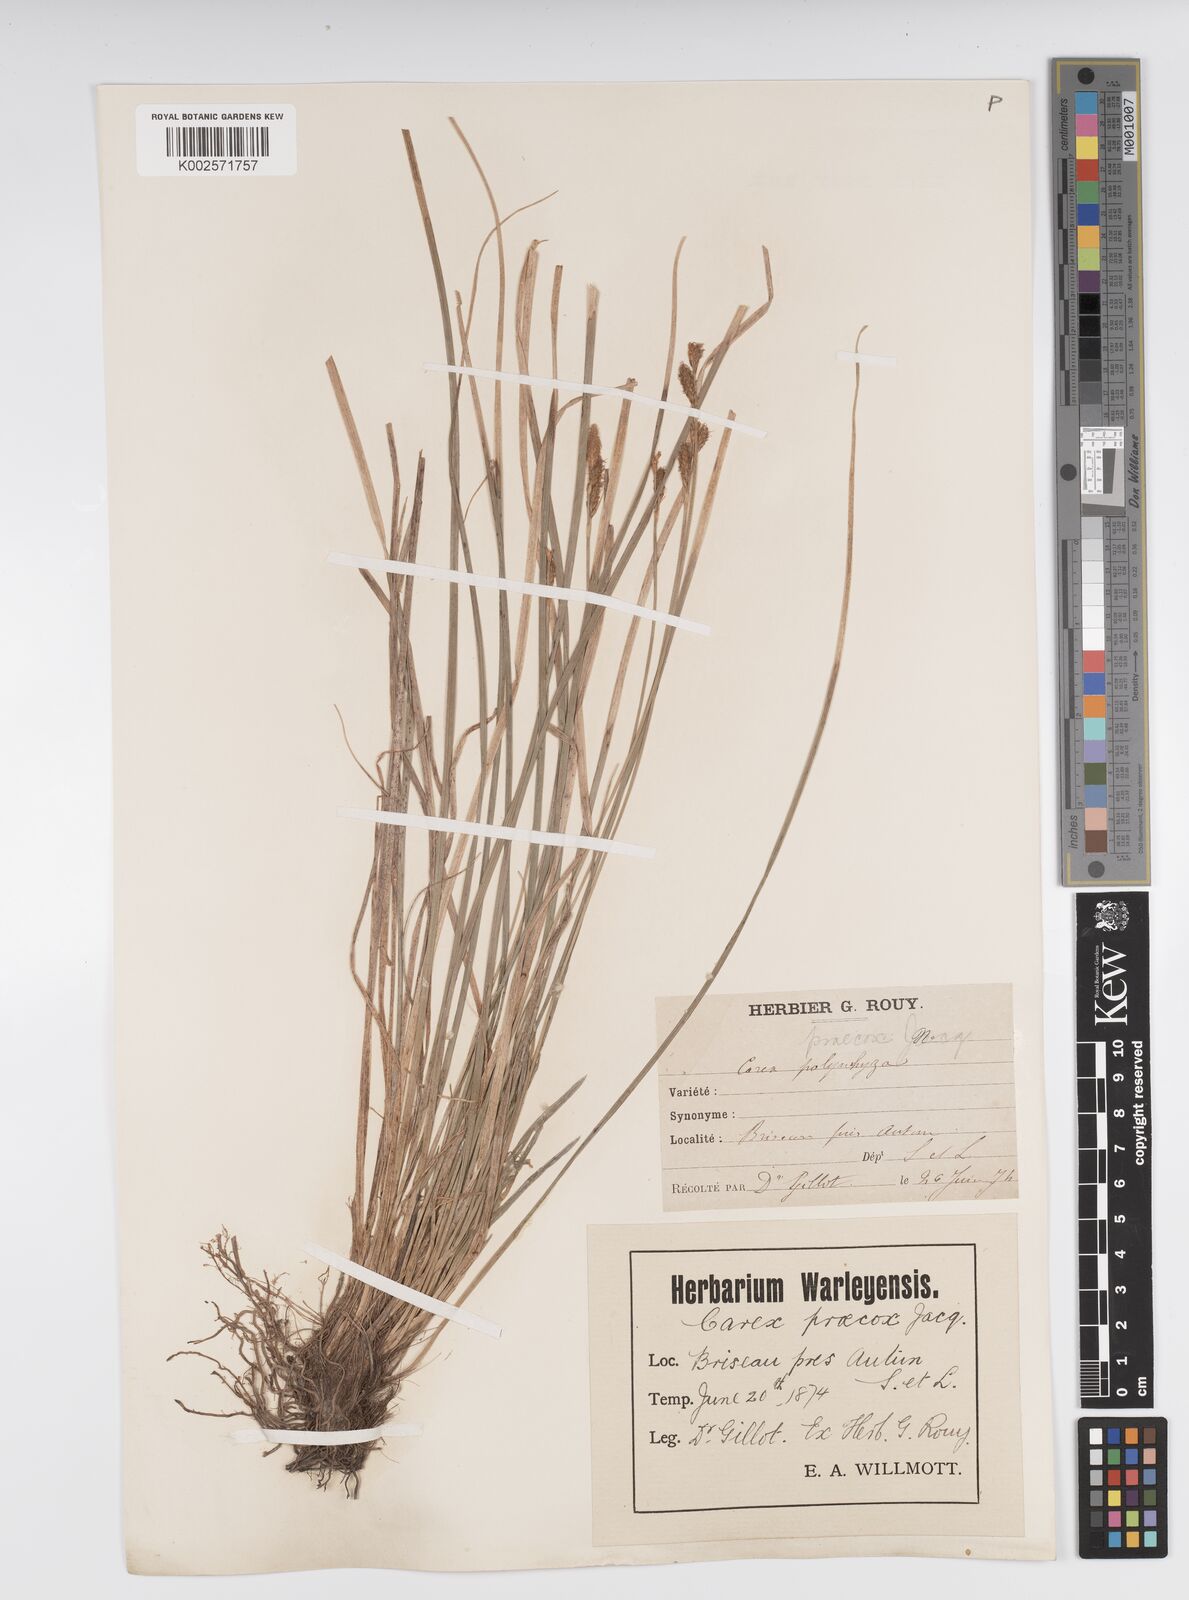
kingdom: Plantae
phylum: Tracheophyta
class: Liliopsida
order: Poales
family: Cyperaceae
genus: Carex
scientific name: Carex caryophyllea
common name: Spring sedge
